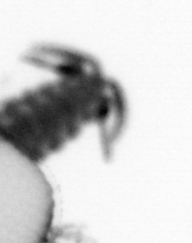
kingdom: Animalia
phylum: Annelida
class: Polychaeta
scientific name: Polychaeta
